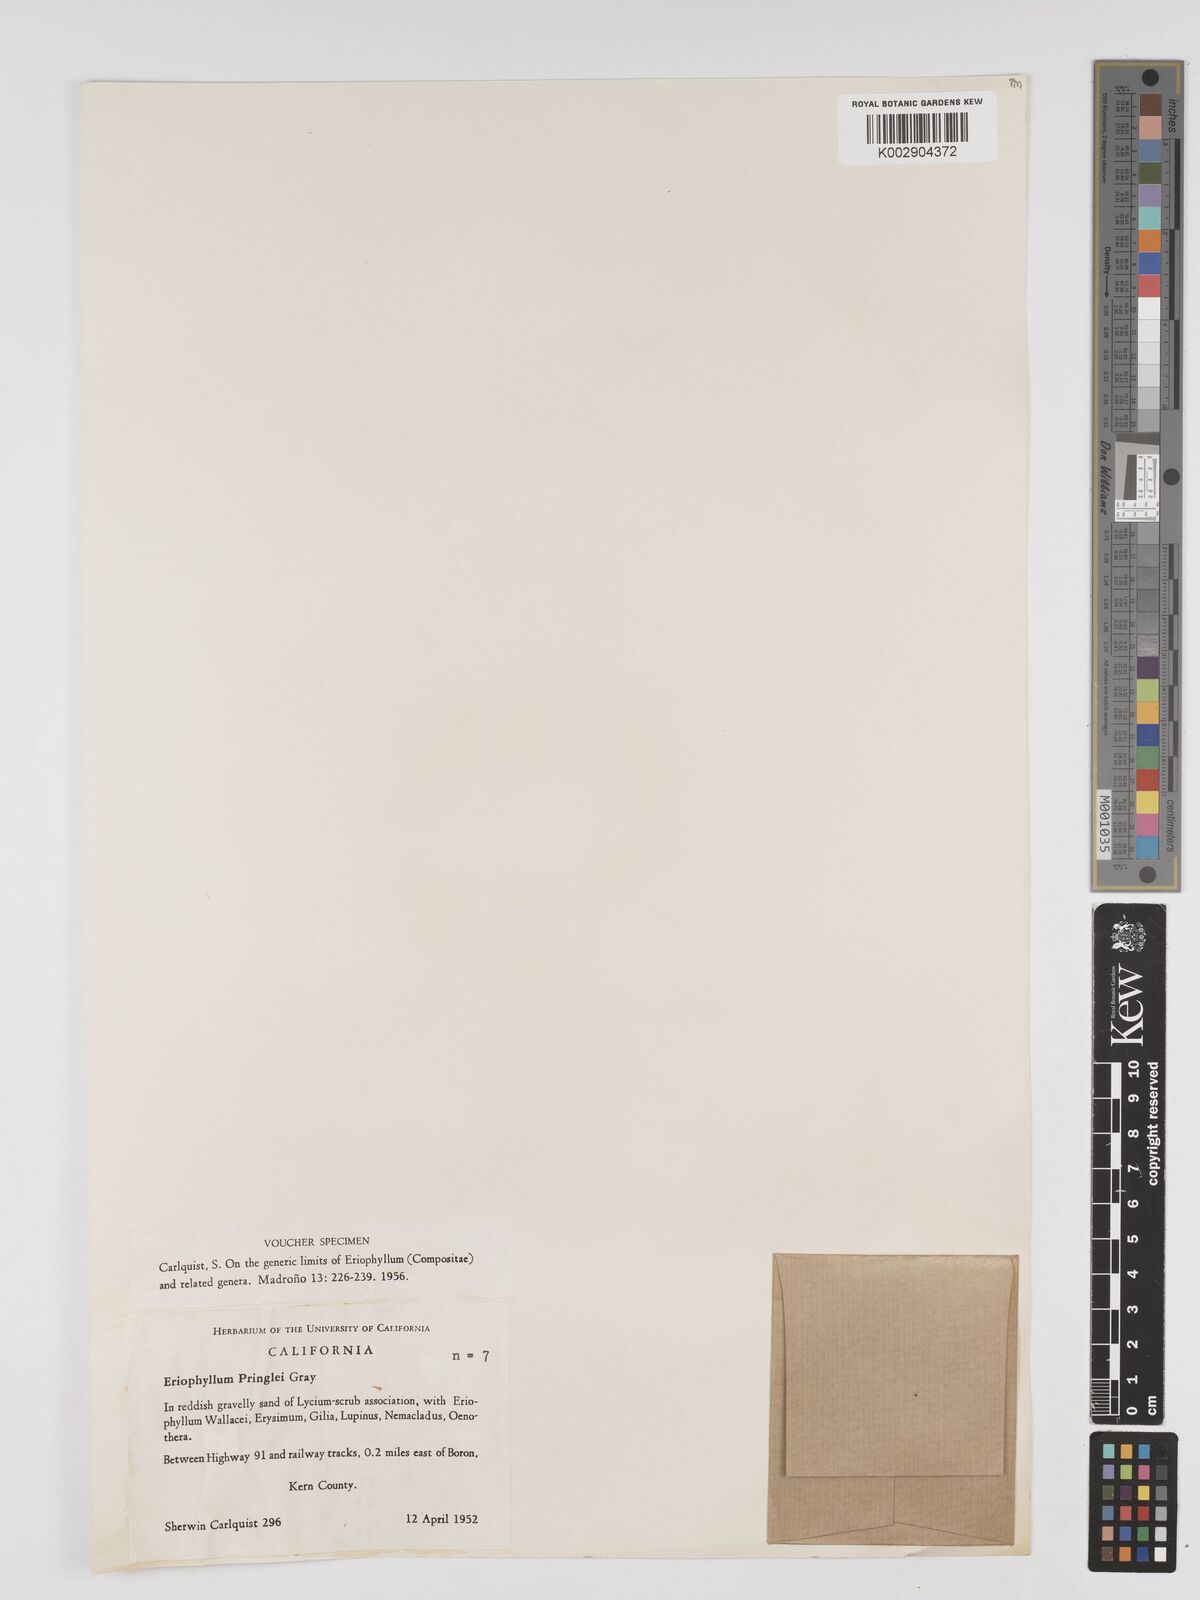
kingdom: Plantae
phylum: Tracheophyta
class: Magnoliopsida
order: Asterales
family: Asteraceae
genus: Eriophyllum
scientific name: Eriophyllum pringlei
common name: Pringle's woolly-sunflower
